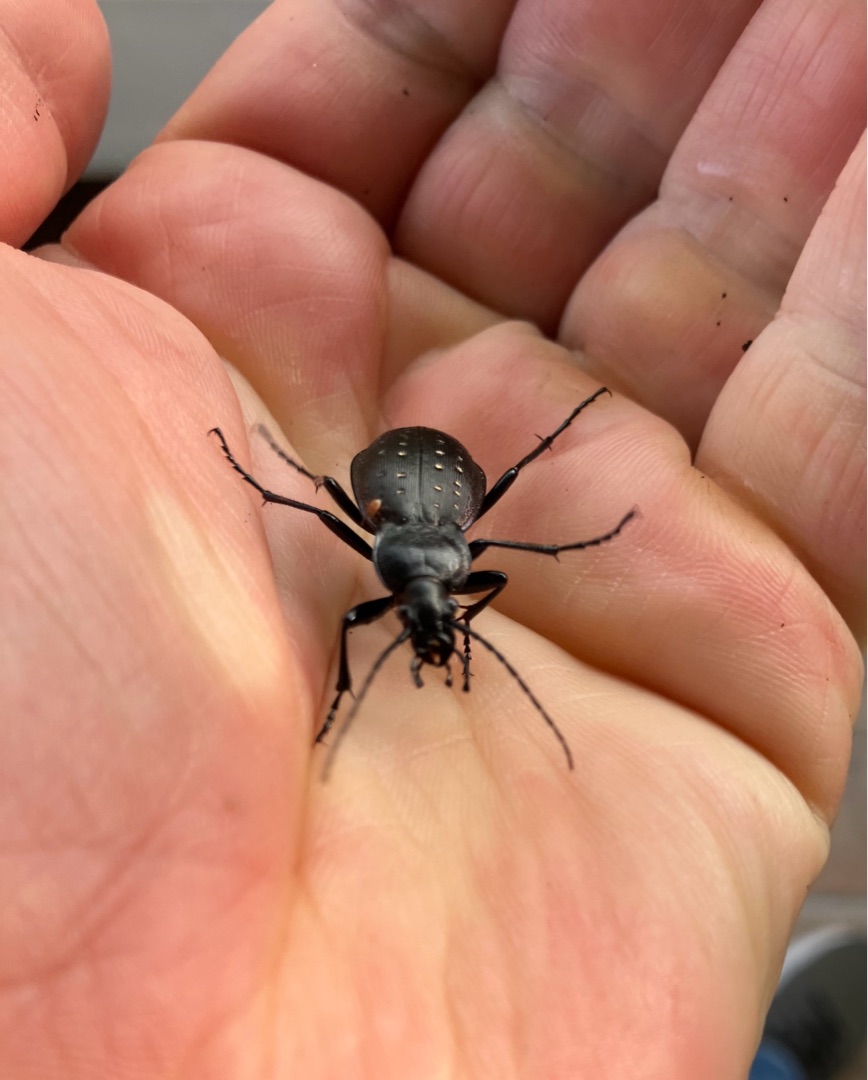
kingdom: Animalia
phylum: Arthropoda
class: Insecta
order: Coleoptera
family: Carabidae
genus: Carabus
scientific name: Carabus hortensis
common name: Guldpletløber
